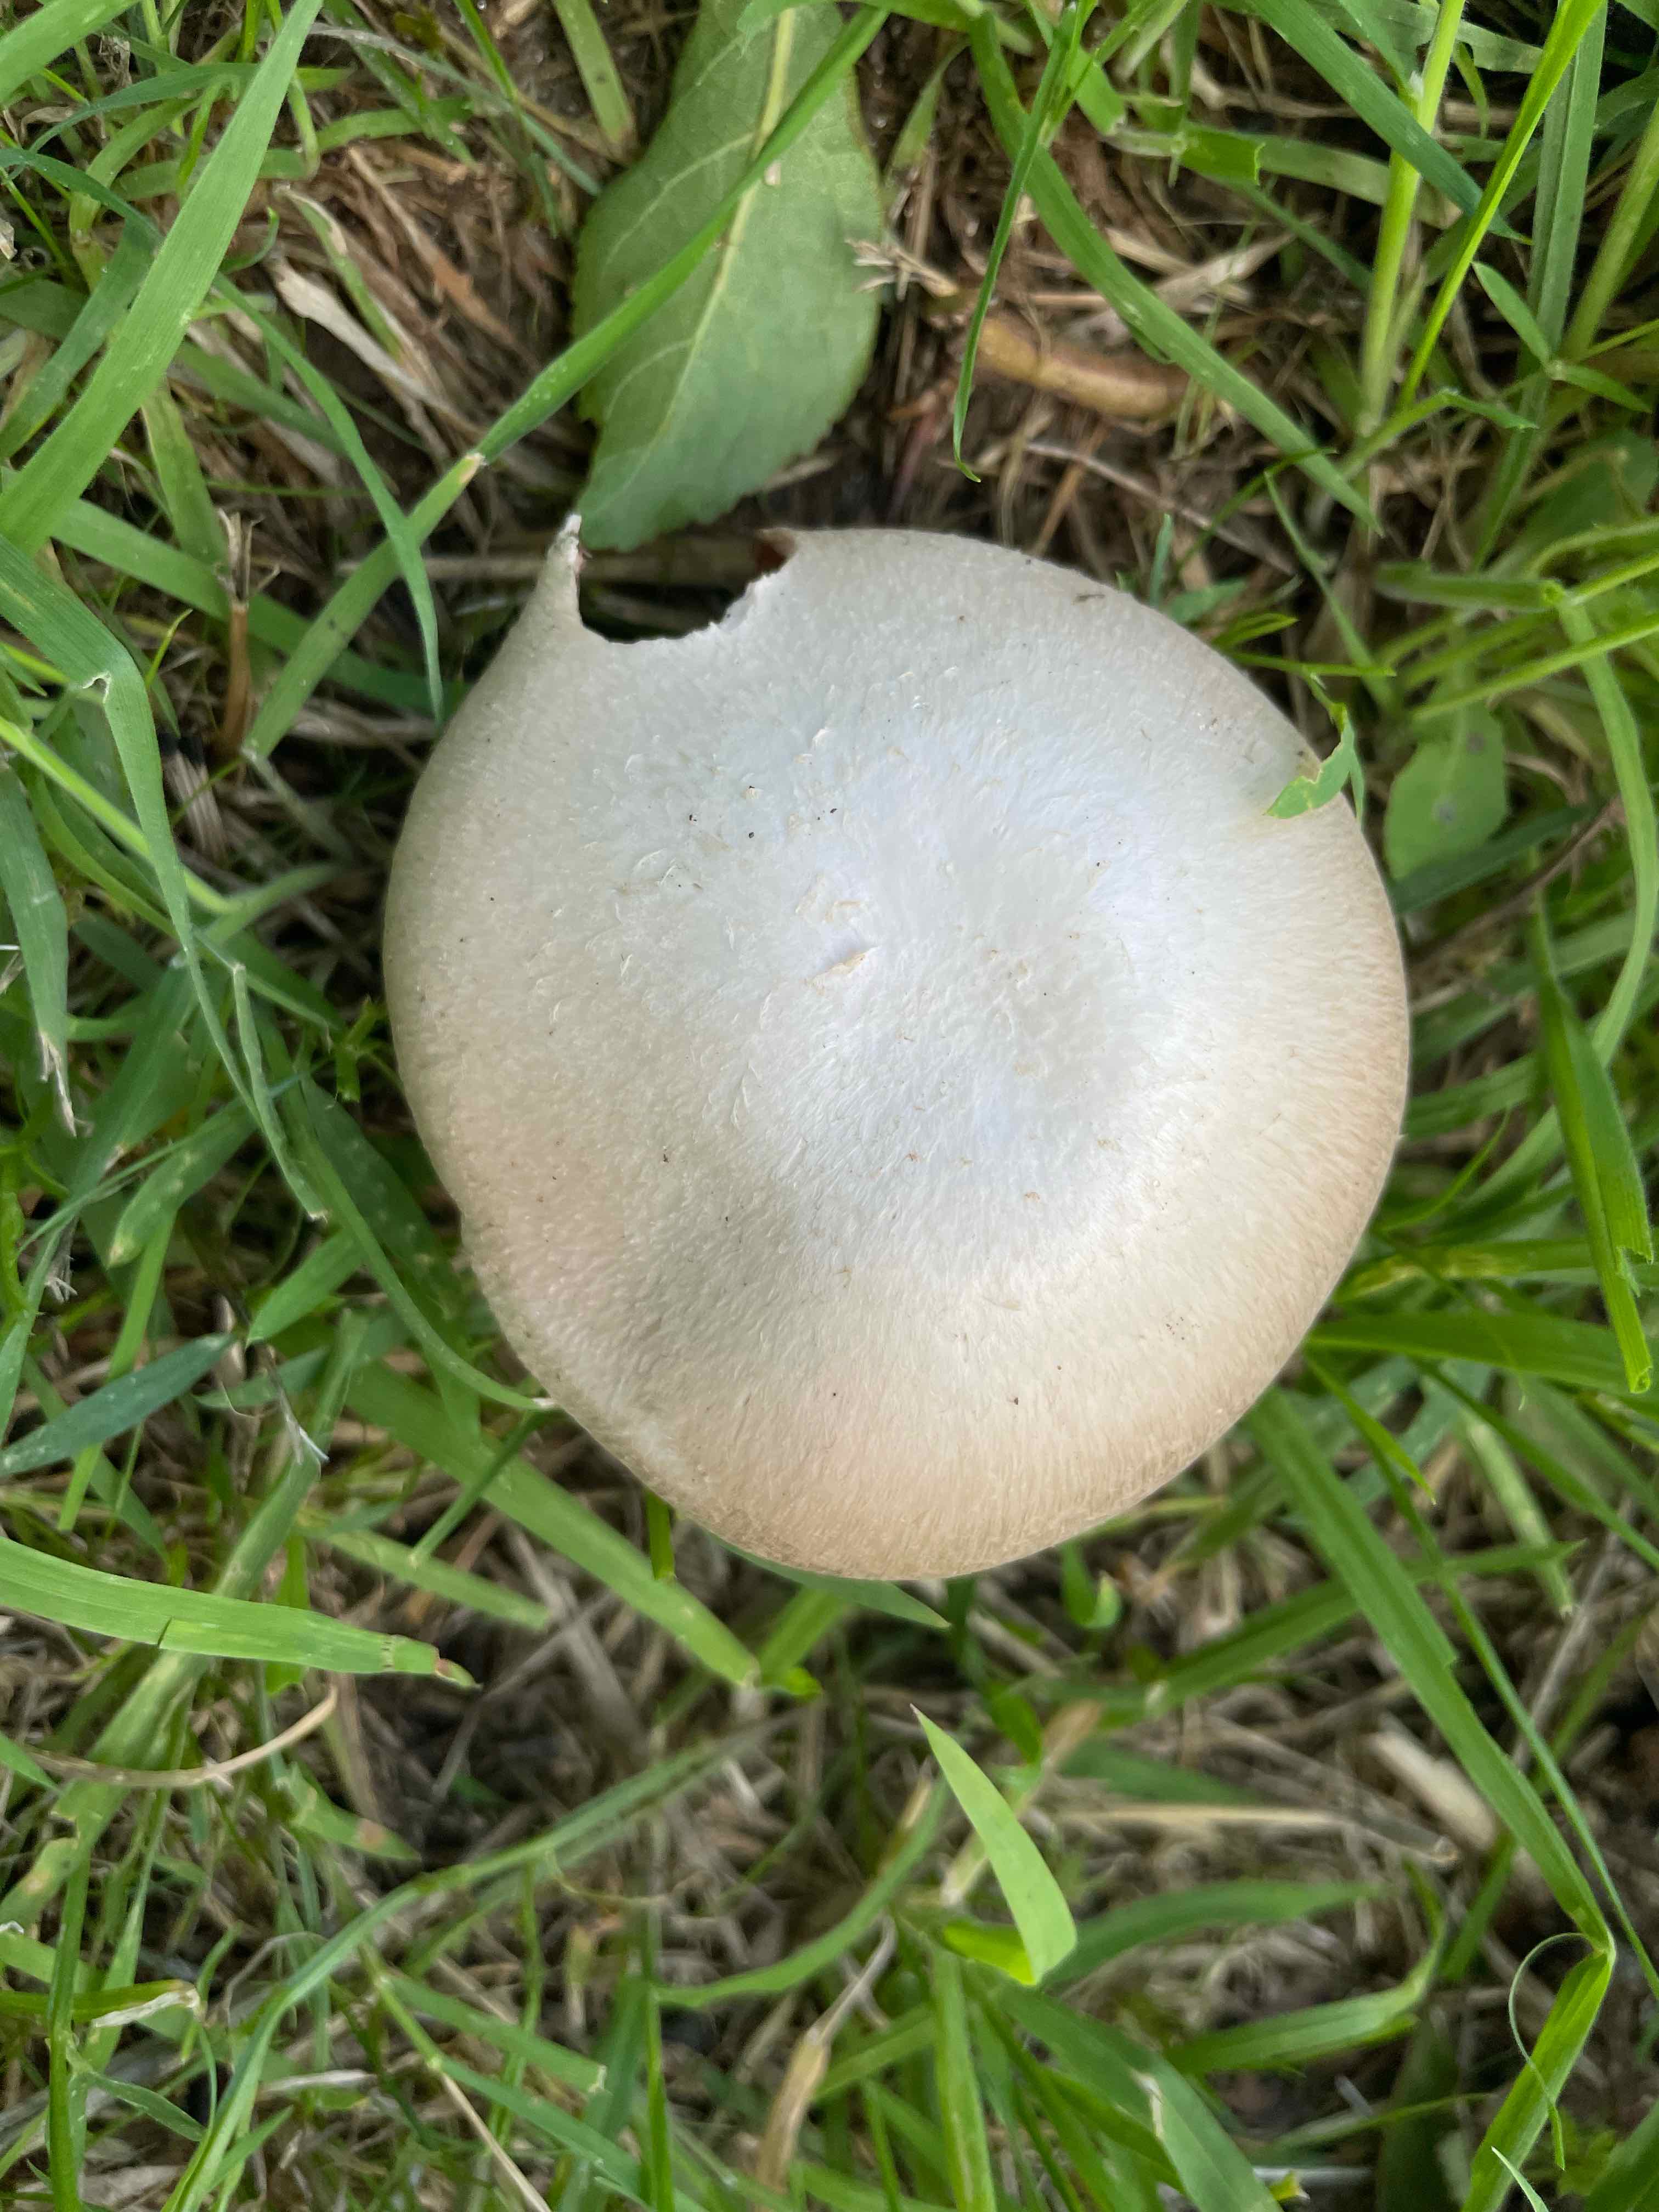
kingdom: Fungi
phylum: Basidiomycota
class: Agaricomycetes
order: Agaricales
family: Agaricaceae
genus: Agaricus
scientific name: Agaricus campestris
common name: mark-champignon
